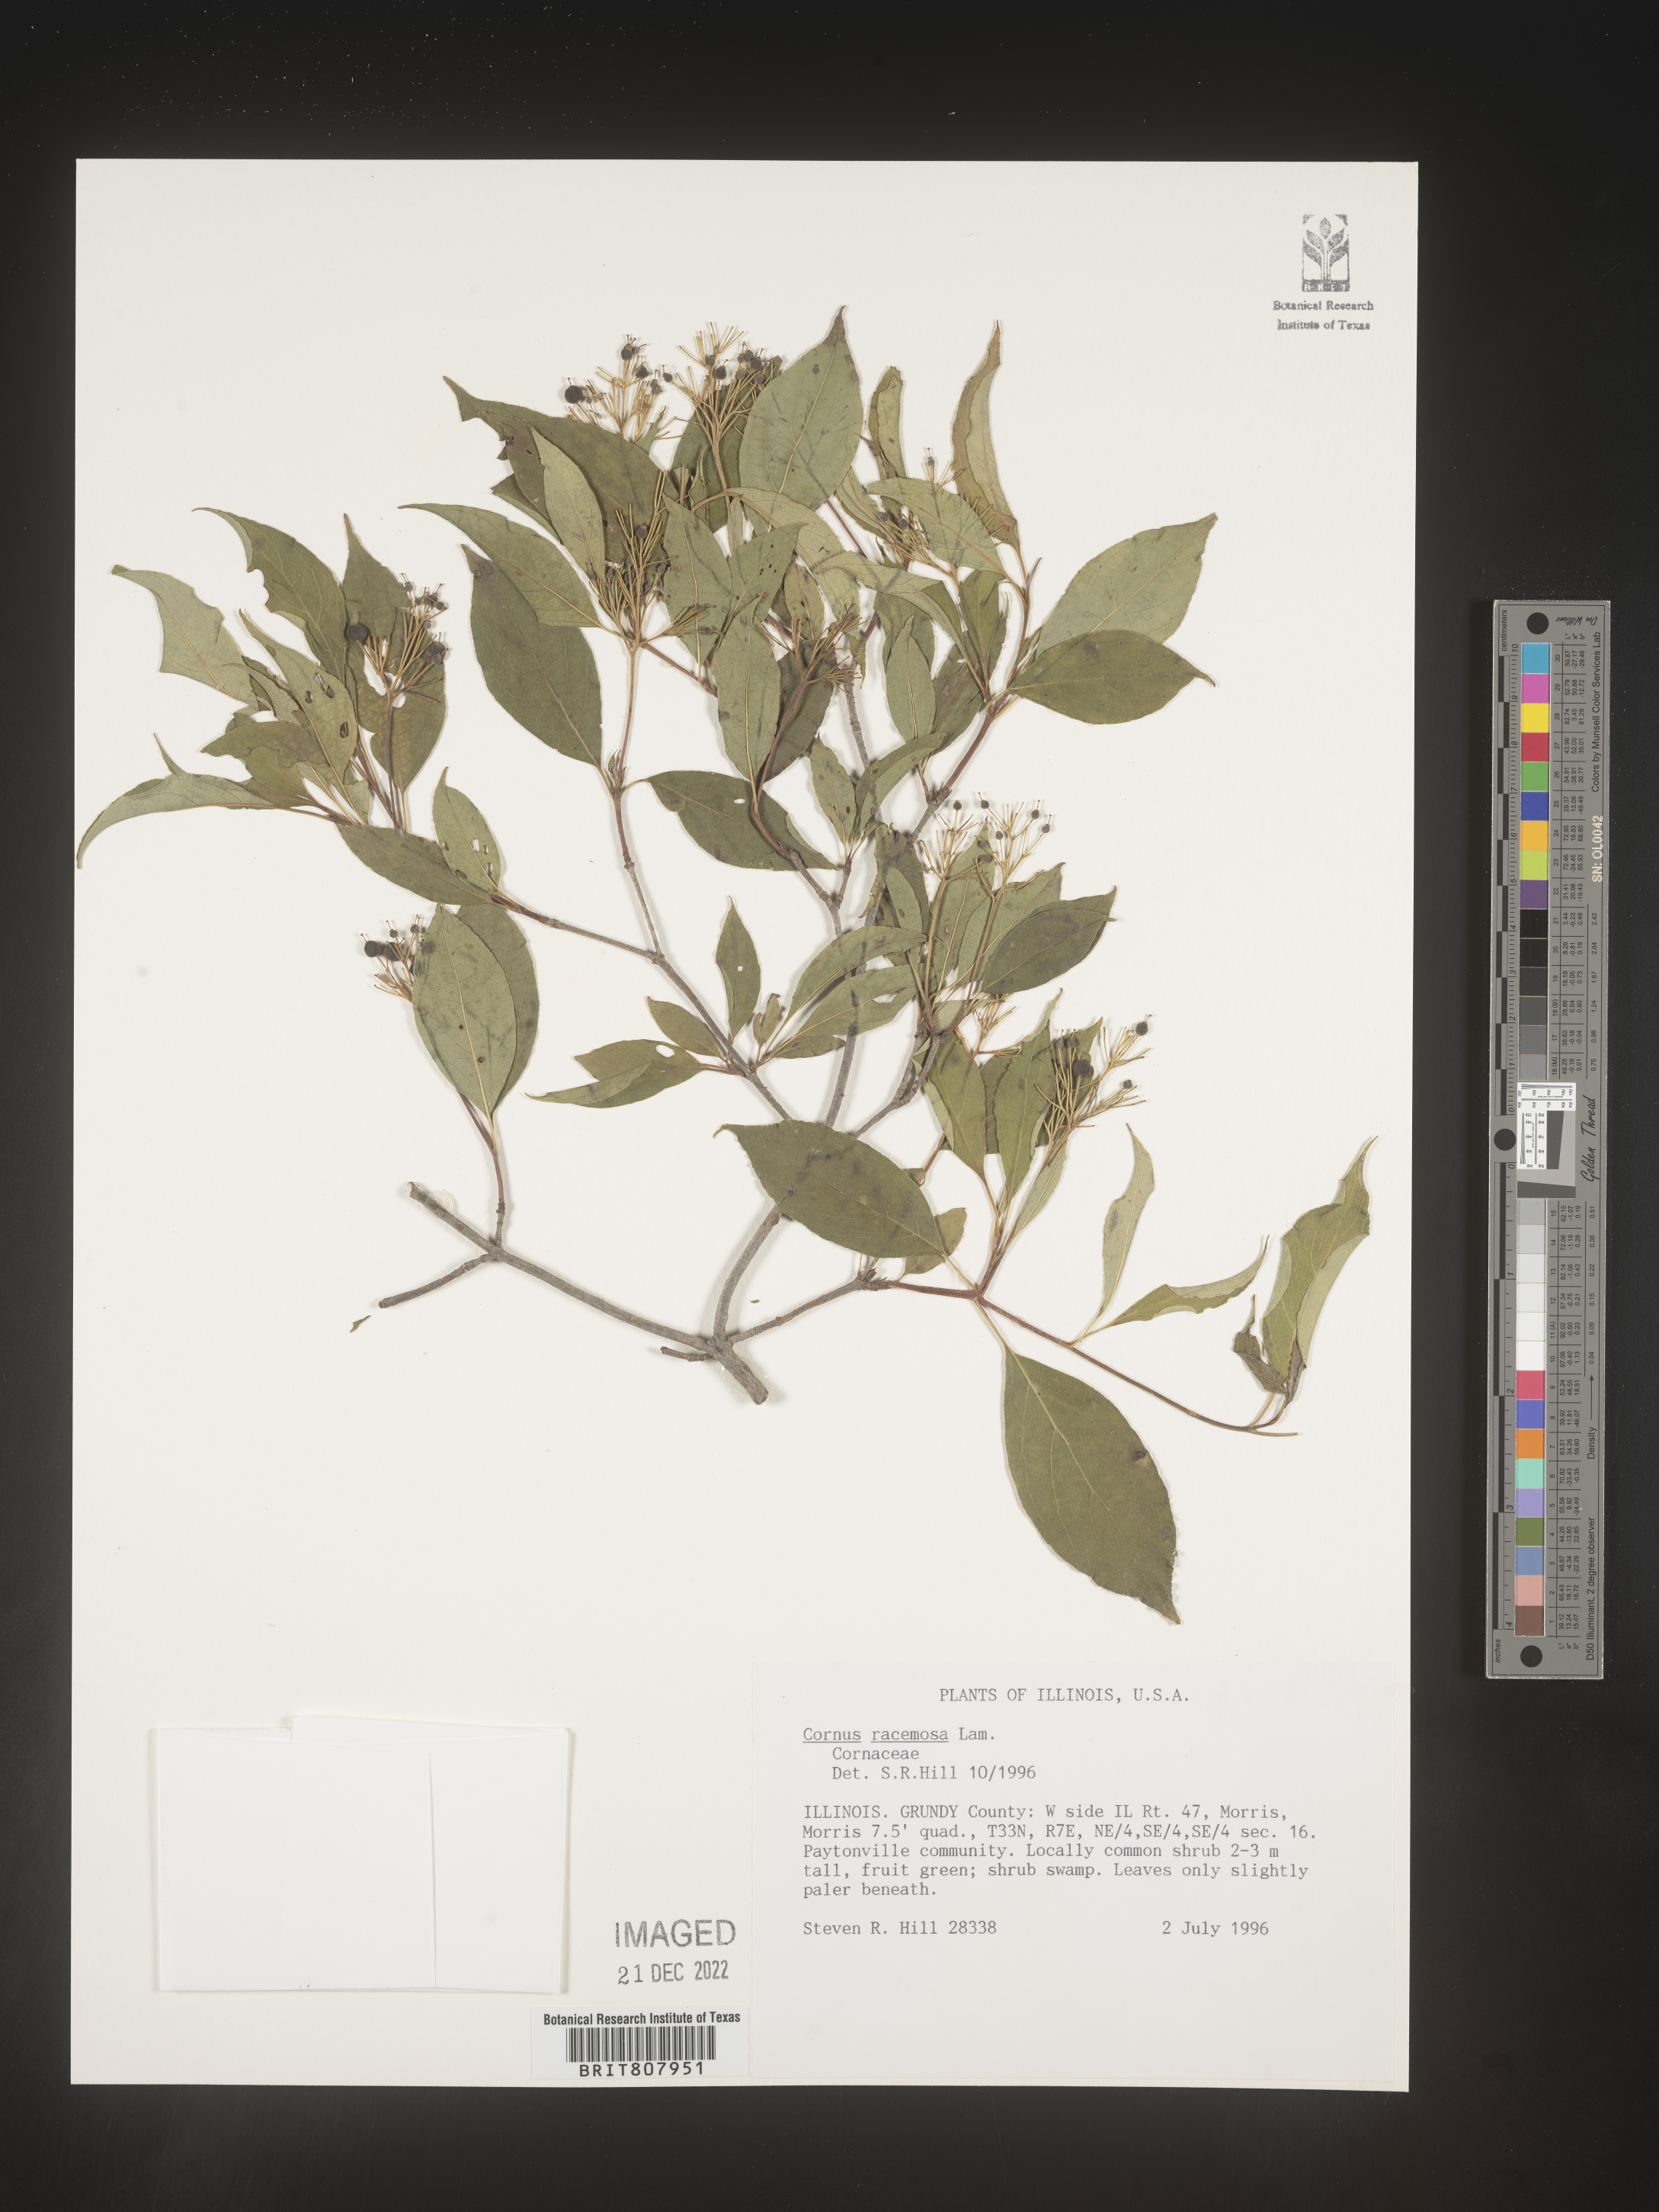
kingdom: Plantae
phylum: Tracheophyta
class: Magnoliopsida
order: Cornales
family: Cornaceae
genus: Cornus
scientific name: Cornus racemosa
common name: Panicled dogwood
